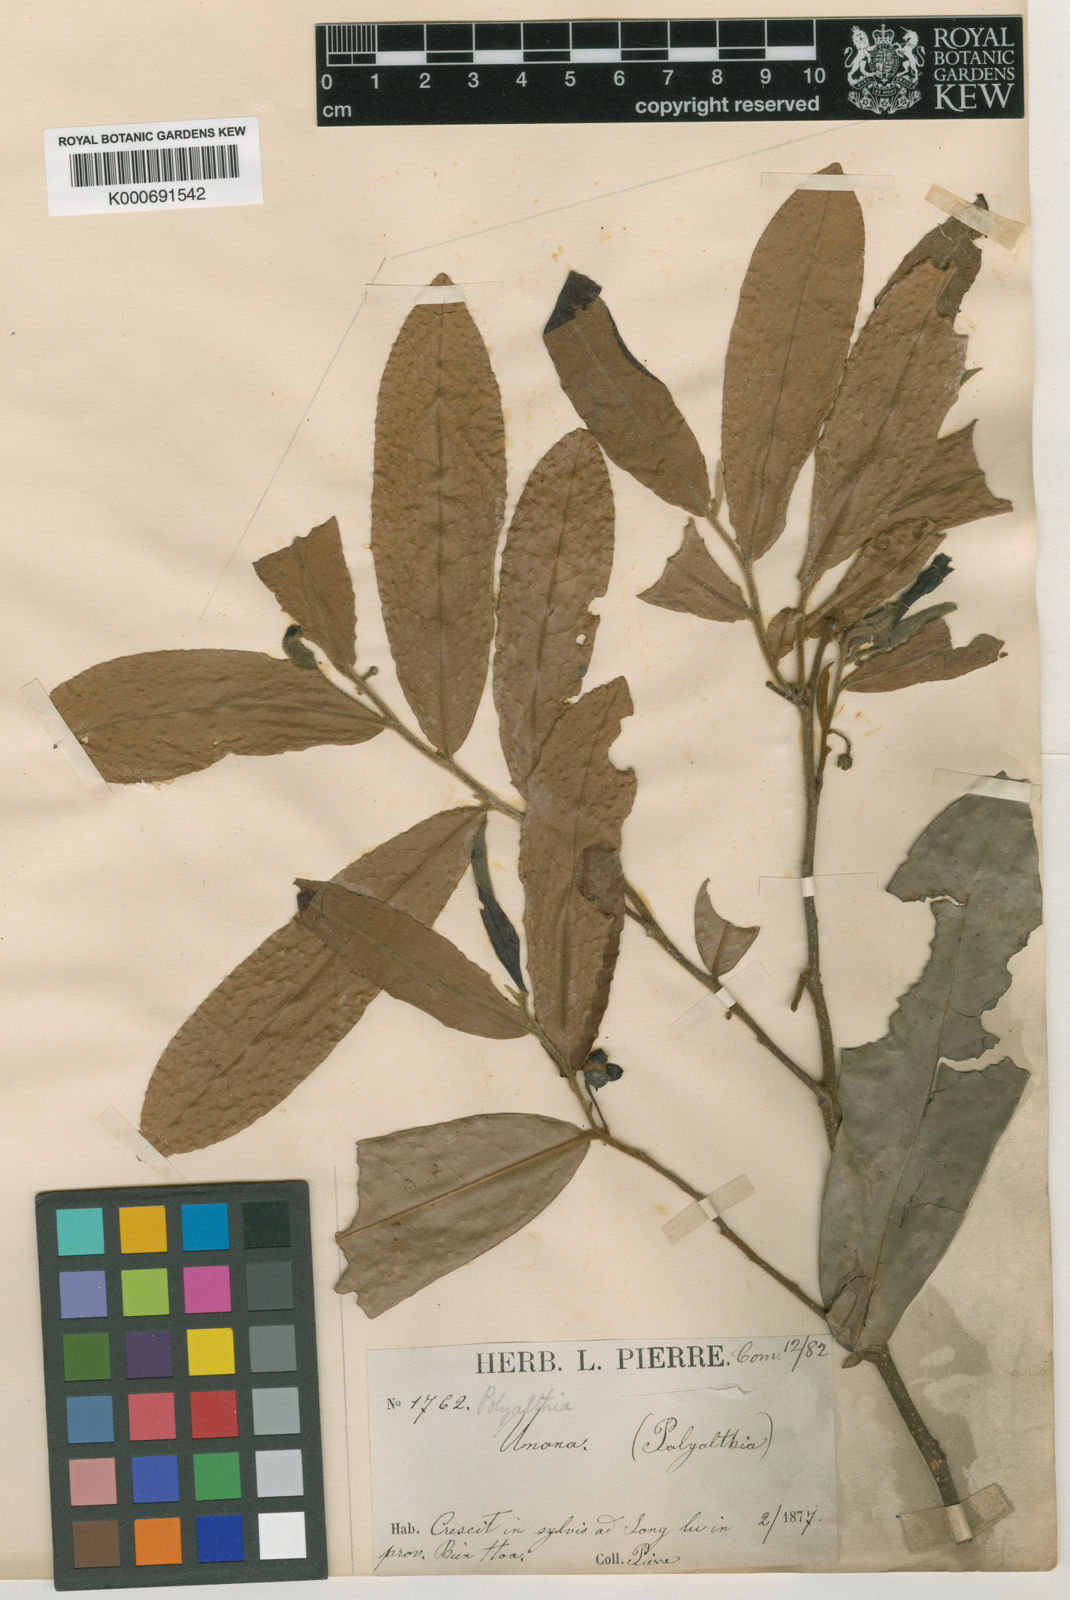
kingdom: Plantae
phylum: Tracheophyta
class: Magnoliopsida
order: Magnoliales
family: Annonaceae
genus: Polyalthia
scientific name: Polyalthia
